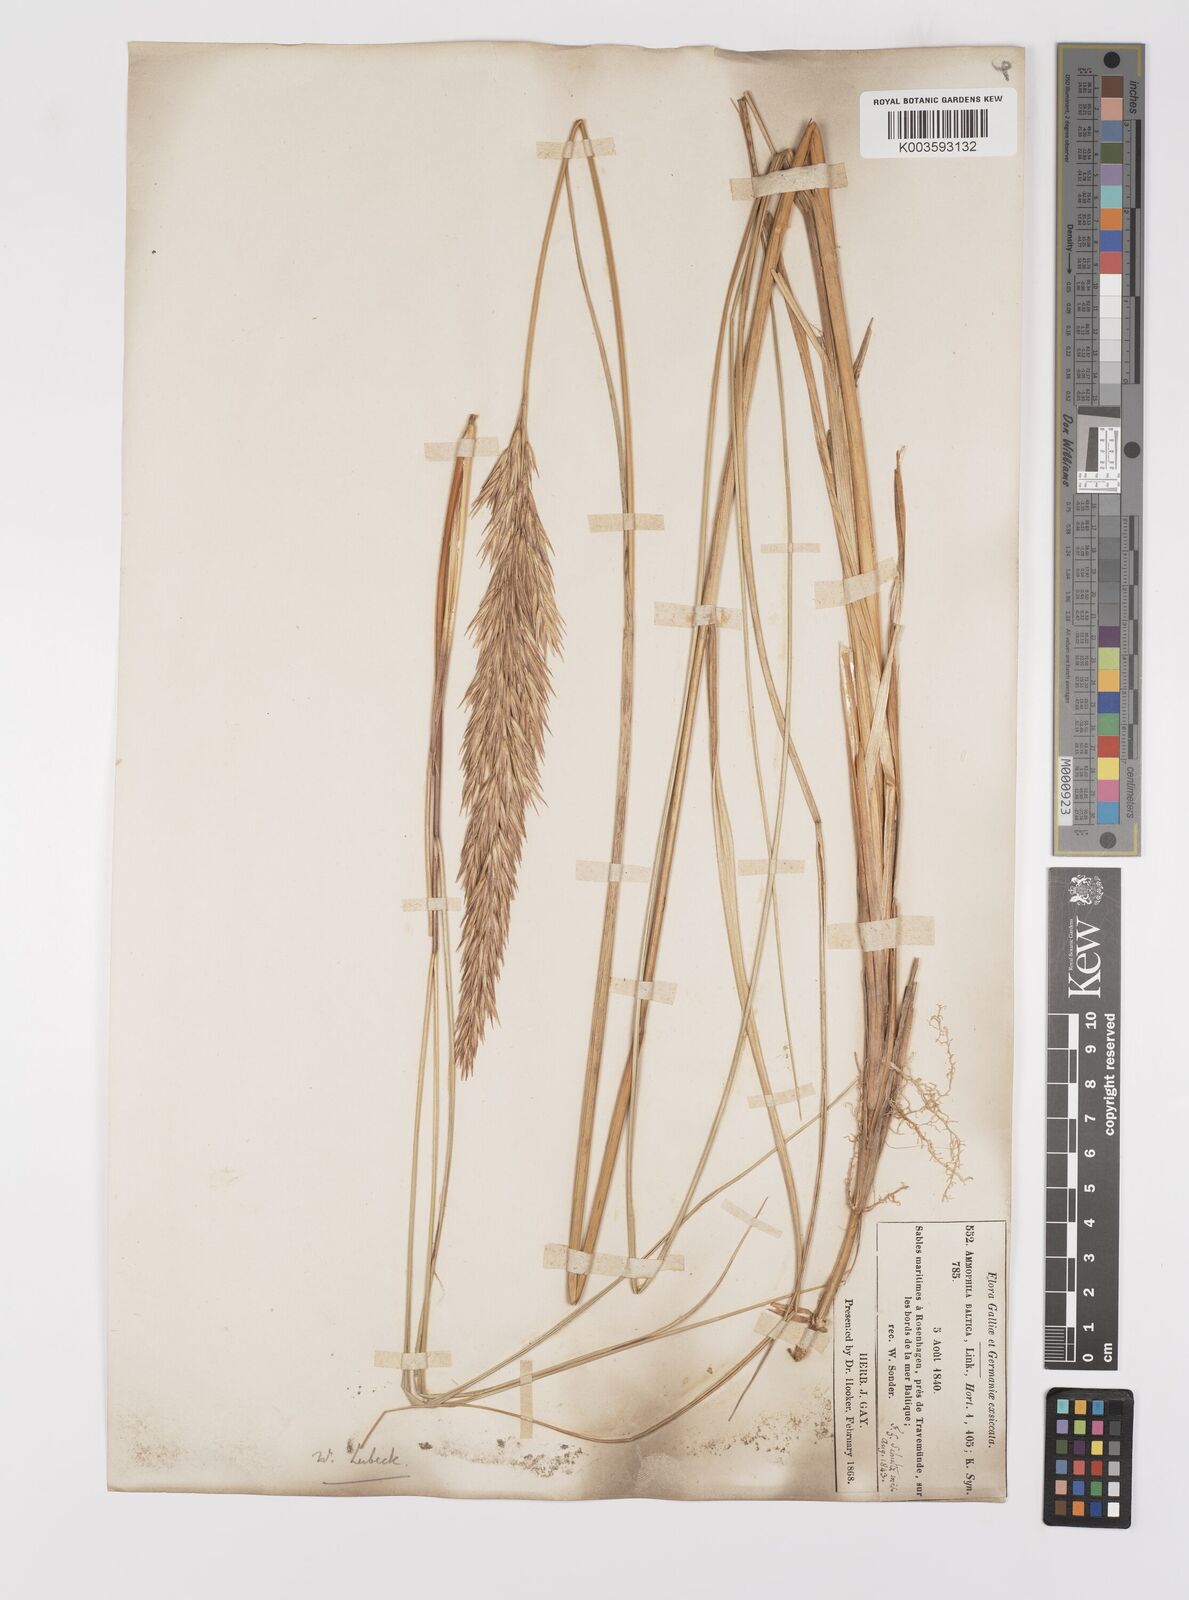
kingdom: Plantae
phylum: Tracheophyta
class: Liliopsida
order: Poales
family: Poaceae
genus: Calamagrostis
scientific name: Calamagrostis baltica
